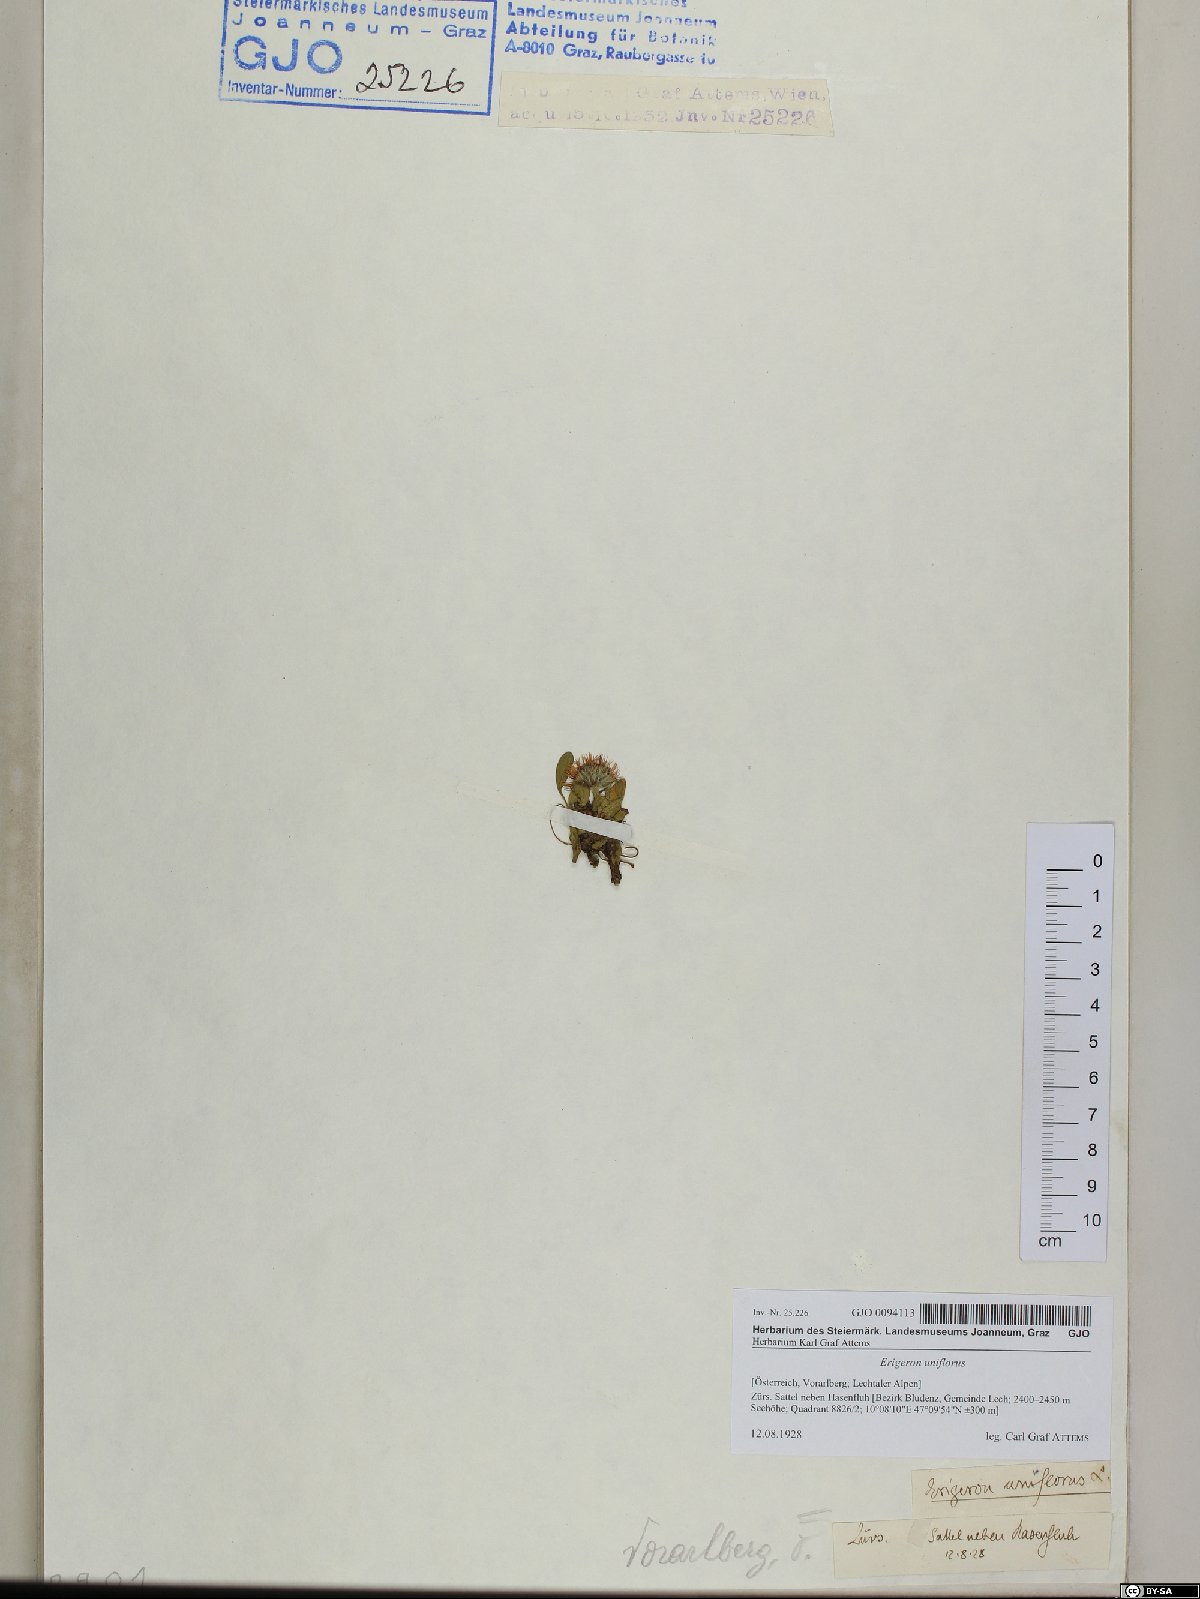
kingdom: Plantae
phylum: Tracheophyta
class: Magnoliopsida
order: Asterales
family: Asteraceae
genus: Erigeron
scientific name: Erigeron uniflorus
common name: Northern daisy
